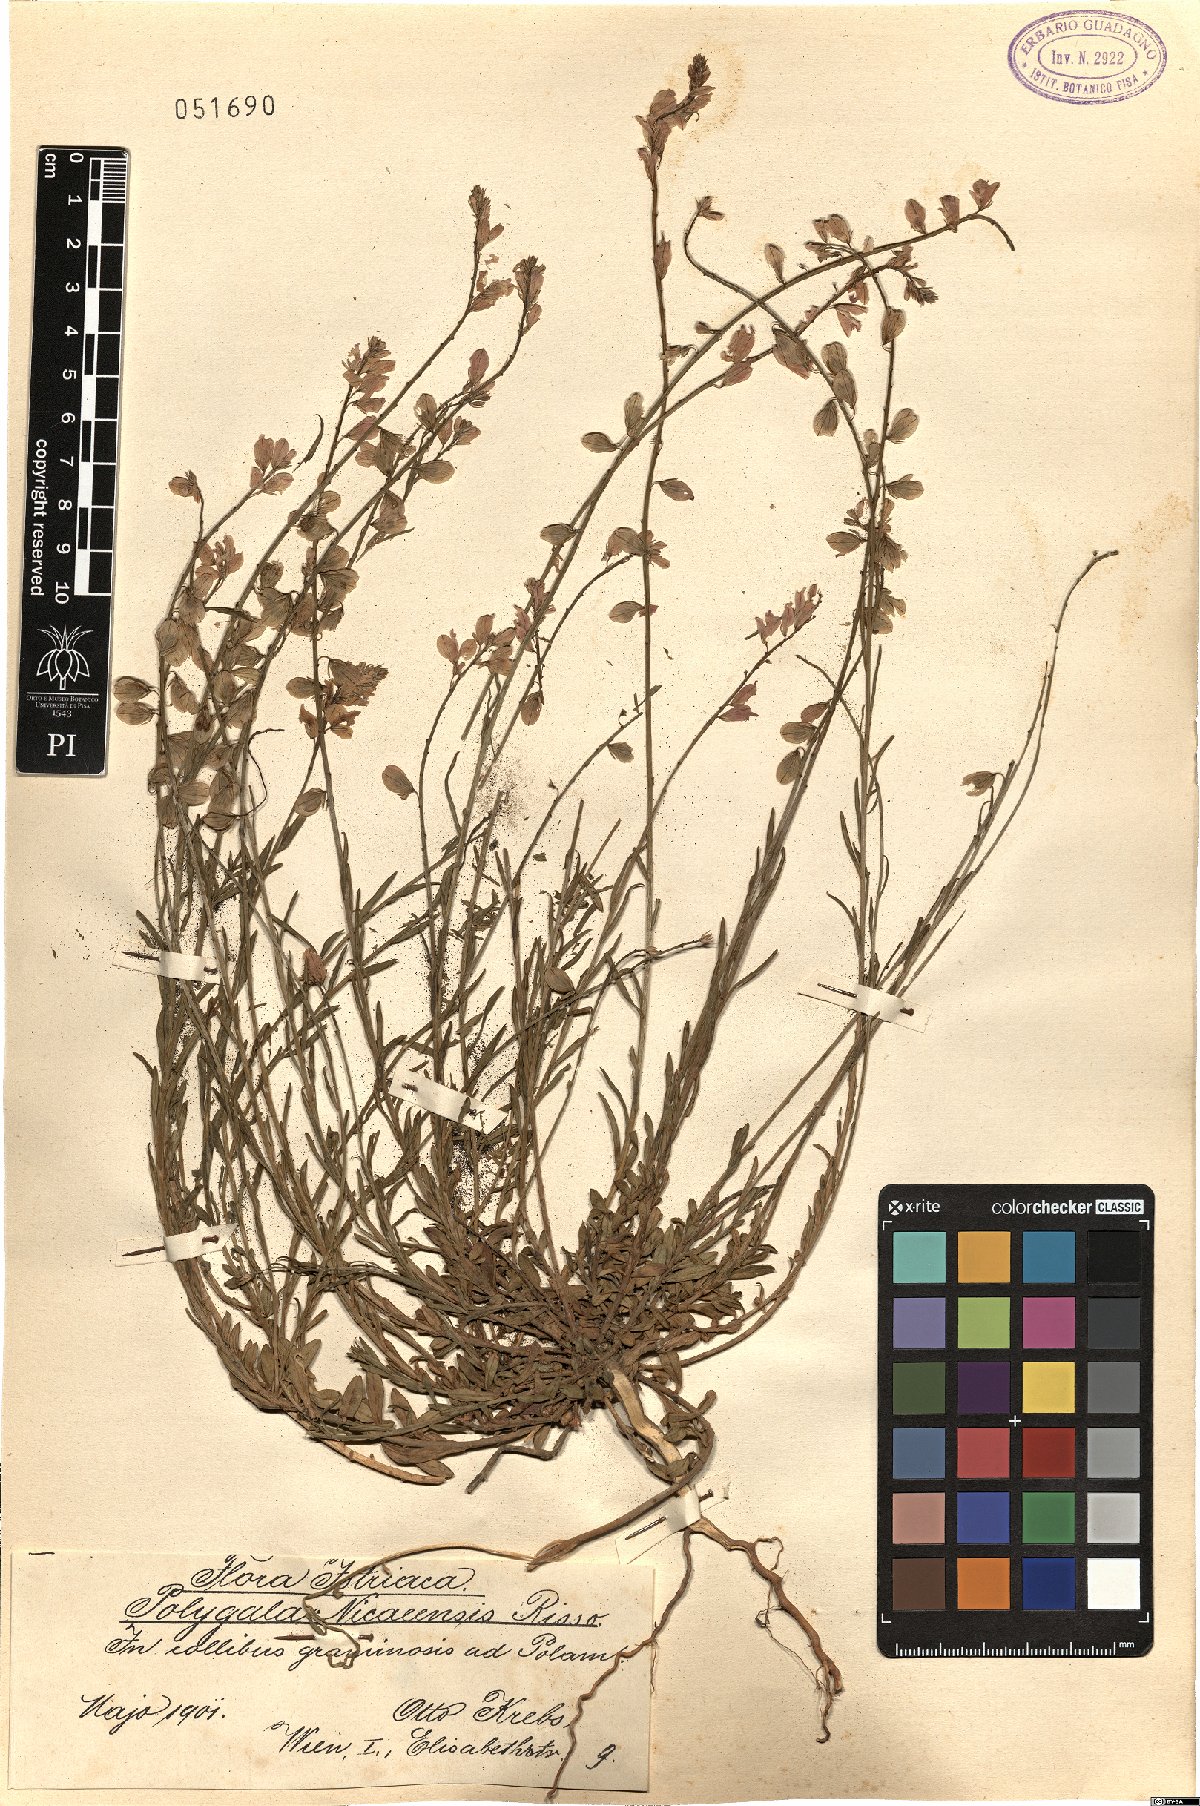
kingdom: Plantae
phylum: Tracheophyta
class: Magnoliopsida
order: Fabales
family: Polygalaceae
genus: Polygala
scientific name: Polygala nicaeensis
